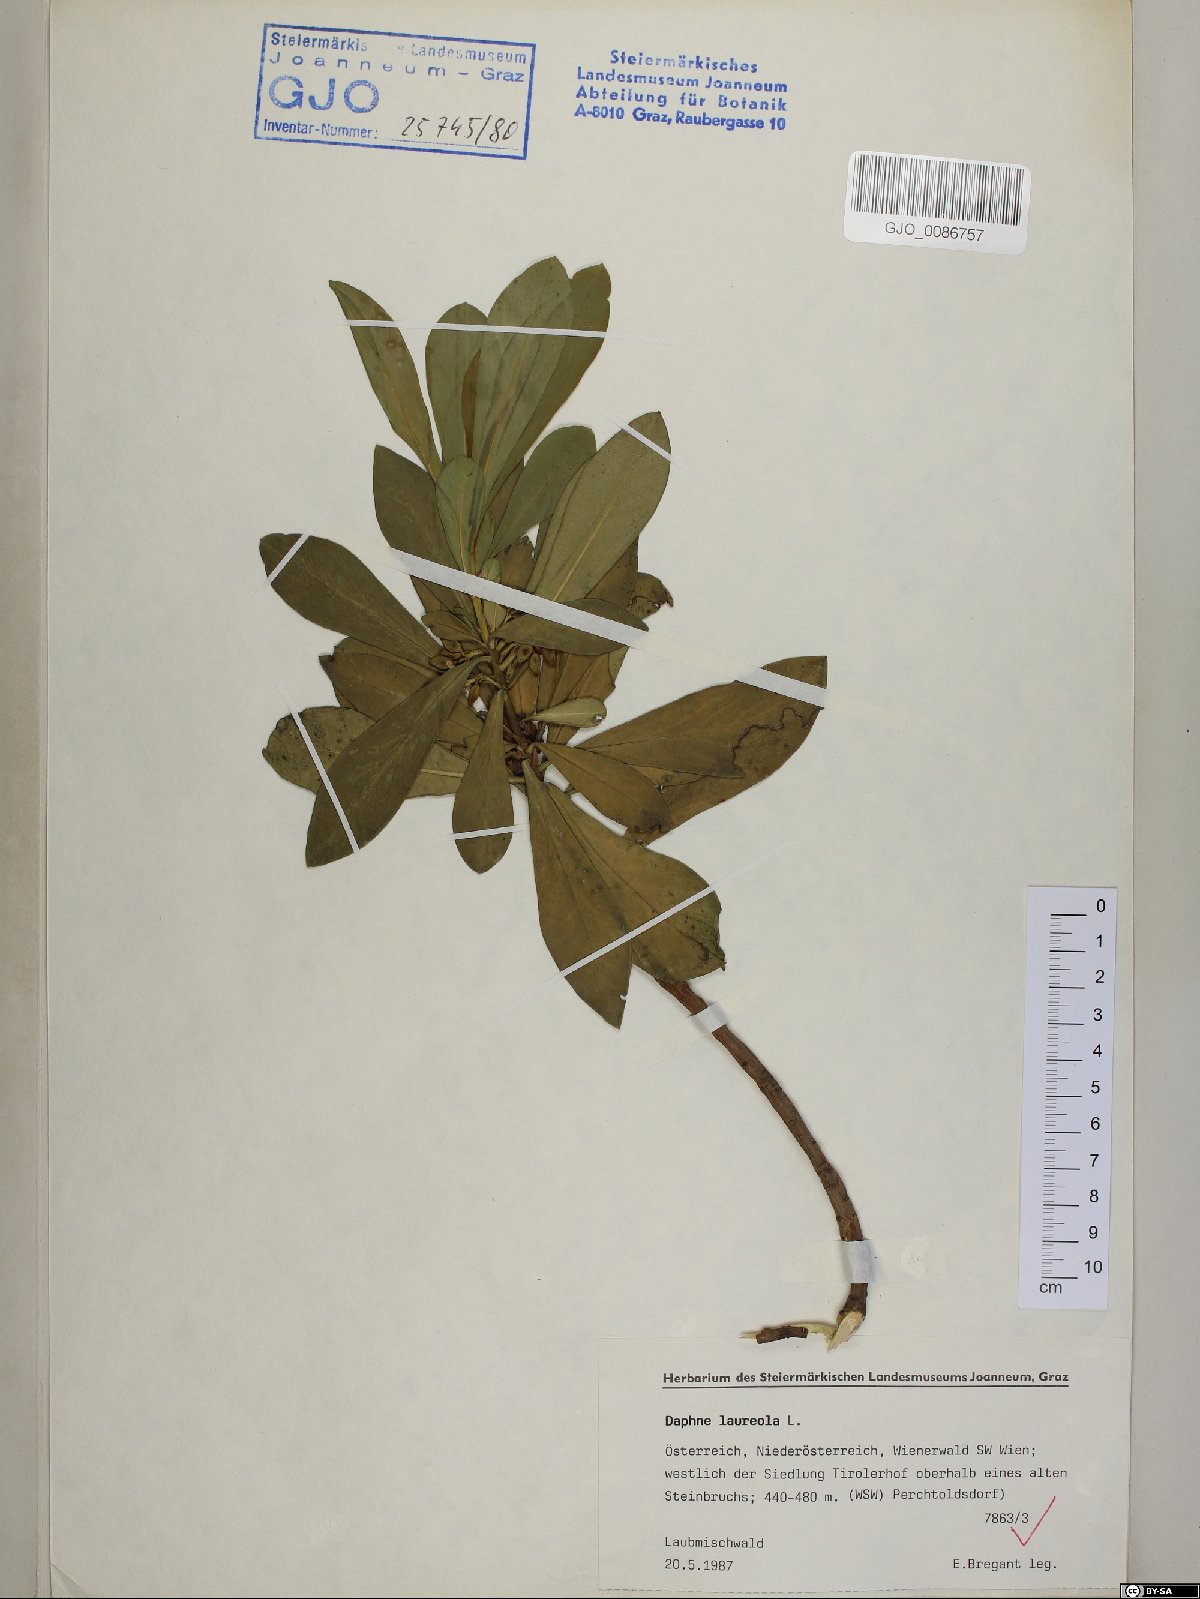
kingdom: Plantae
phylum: Tracheophyta
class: Magnoliopsida
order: Malvales
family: Thymelaeaceae
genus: Daphne
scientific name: Daphne laureola
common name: Spurge-laurel
